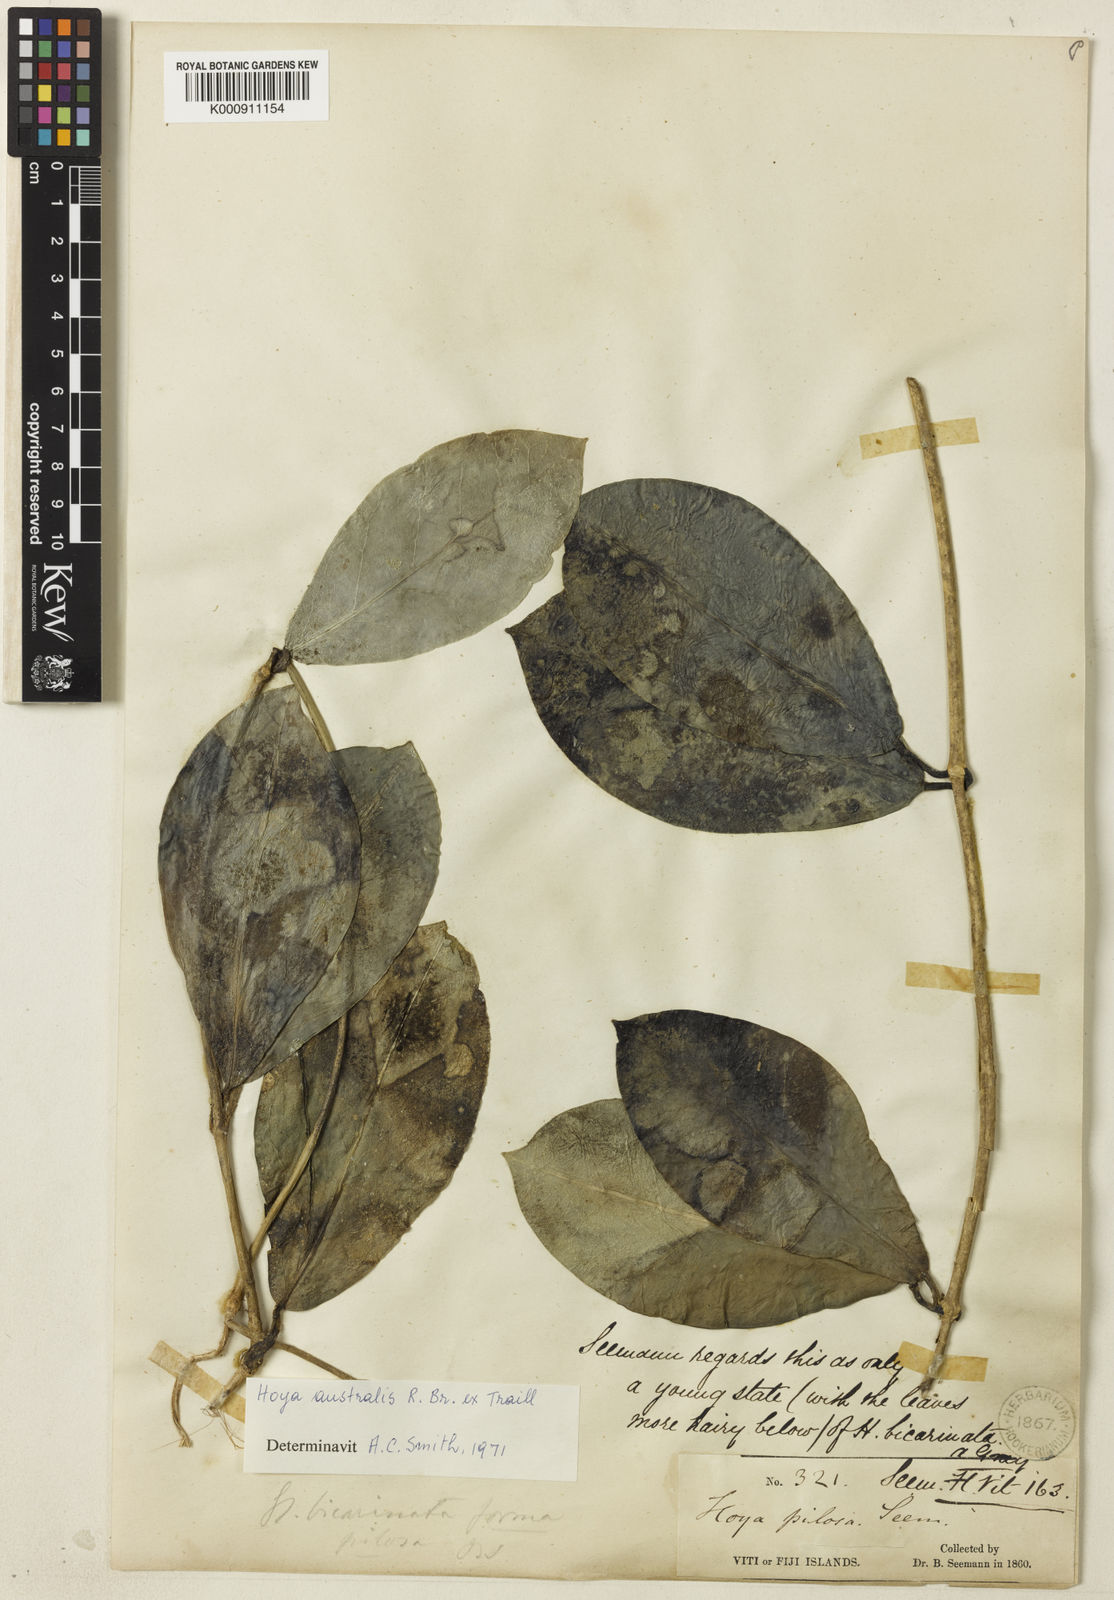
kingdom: Plantae
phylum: Tracheophyta
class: Magnoliopsida
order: Gentianales
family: Apocynaceae
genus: Hoya
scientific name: Hoya australis
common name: Wax flower
